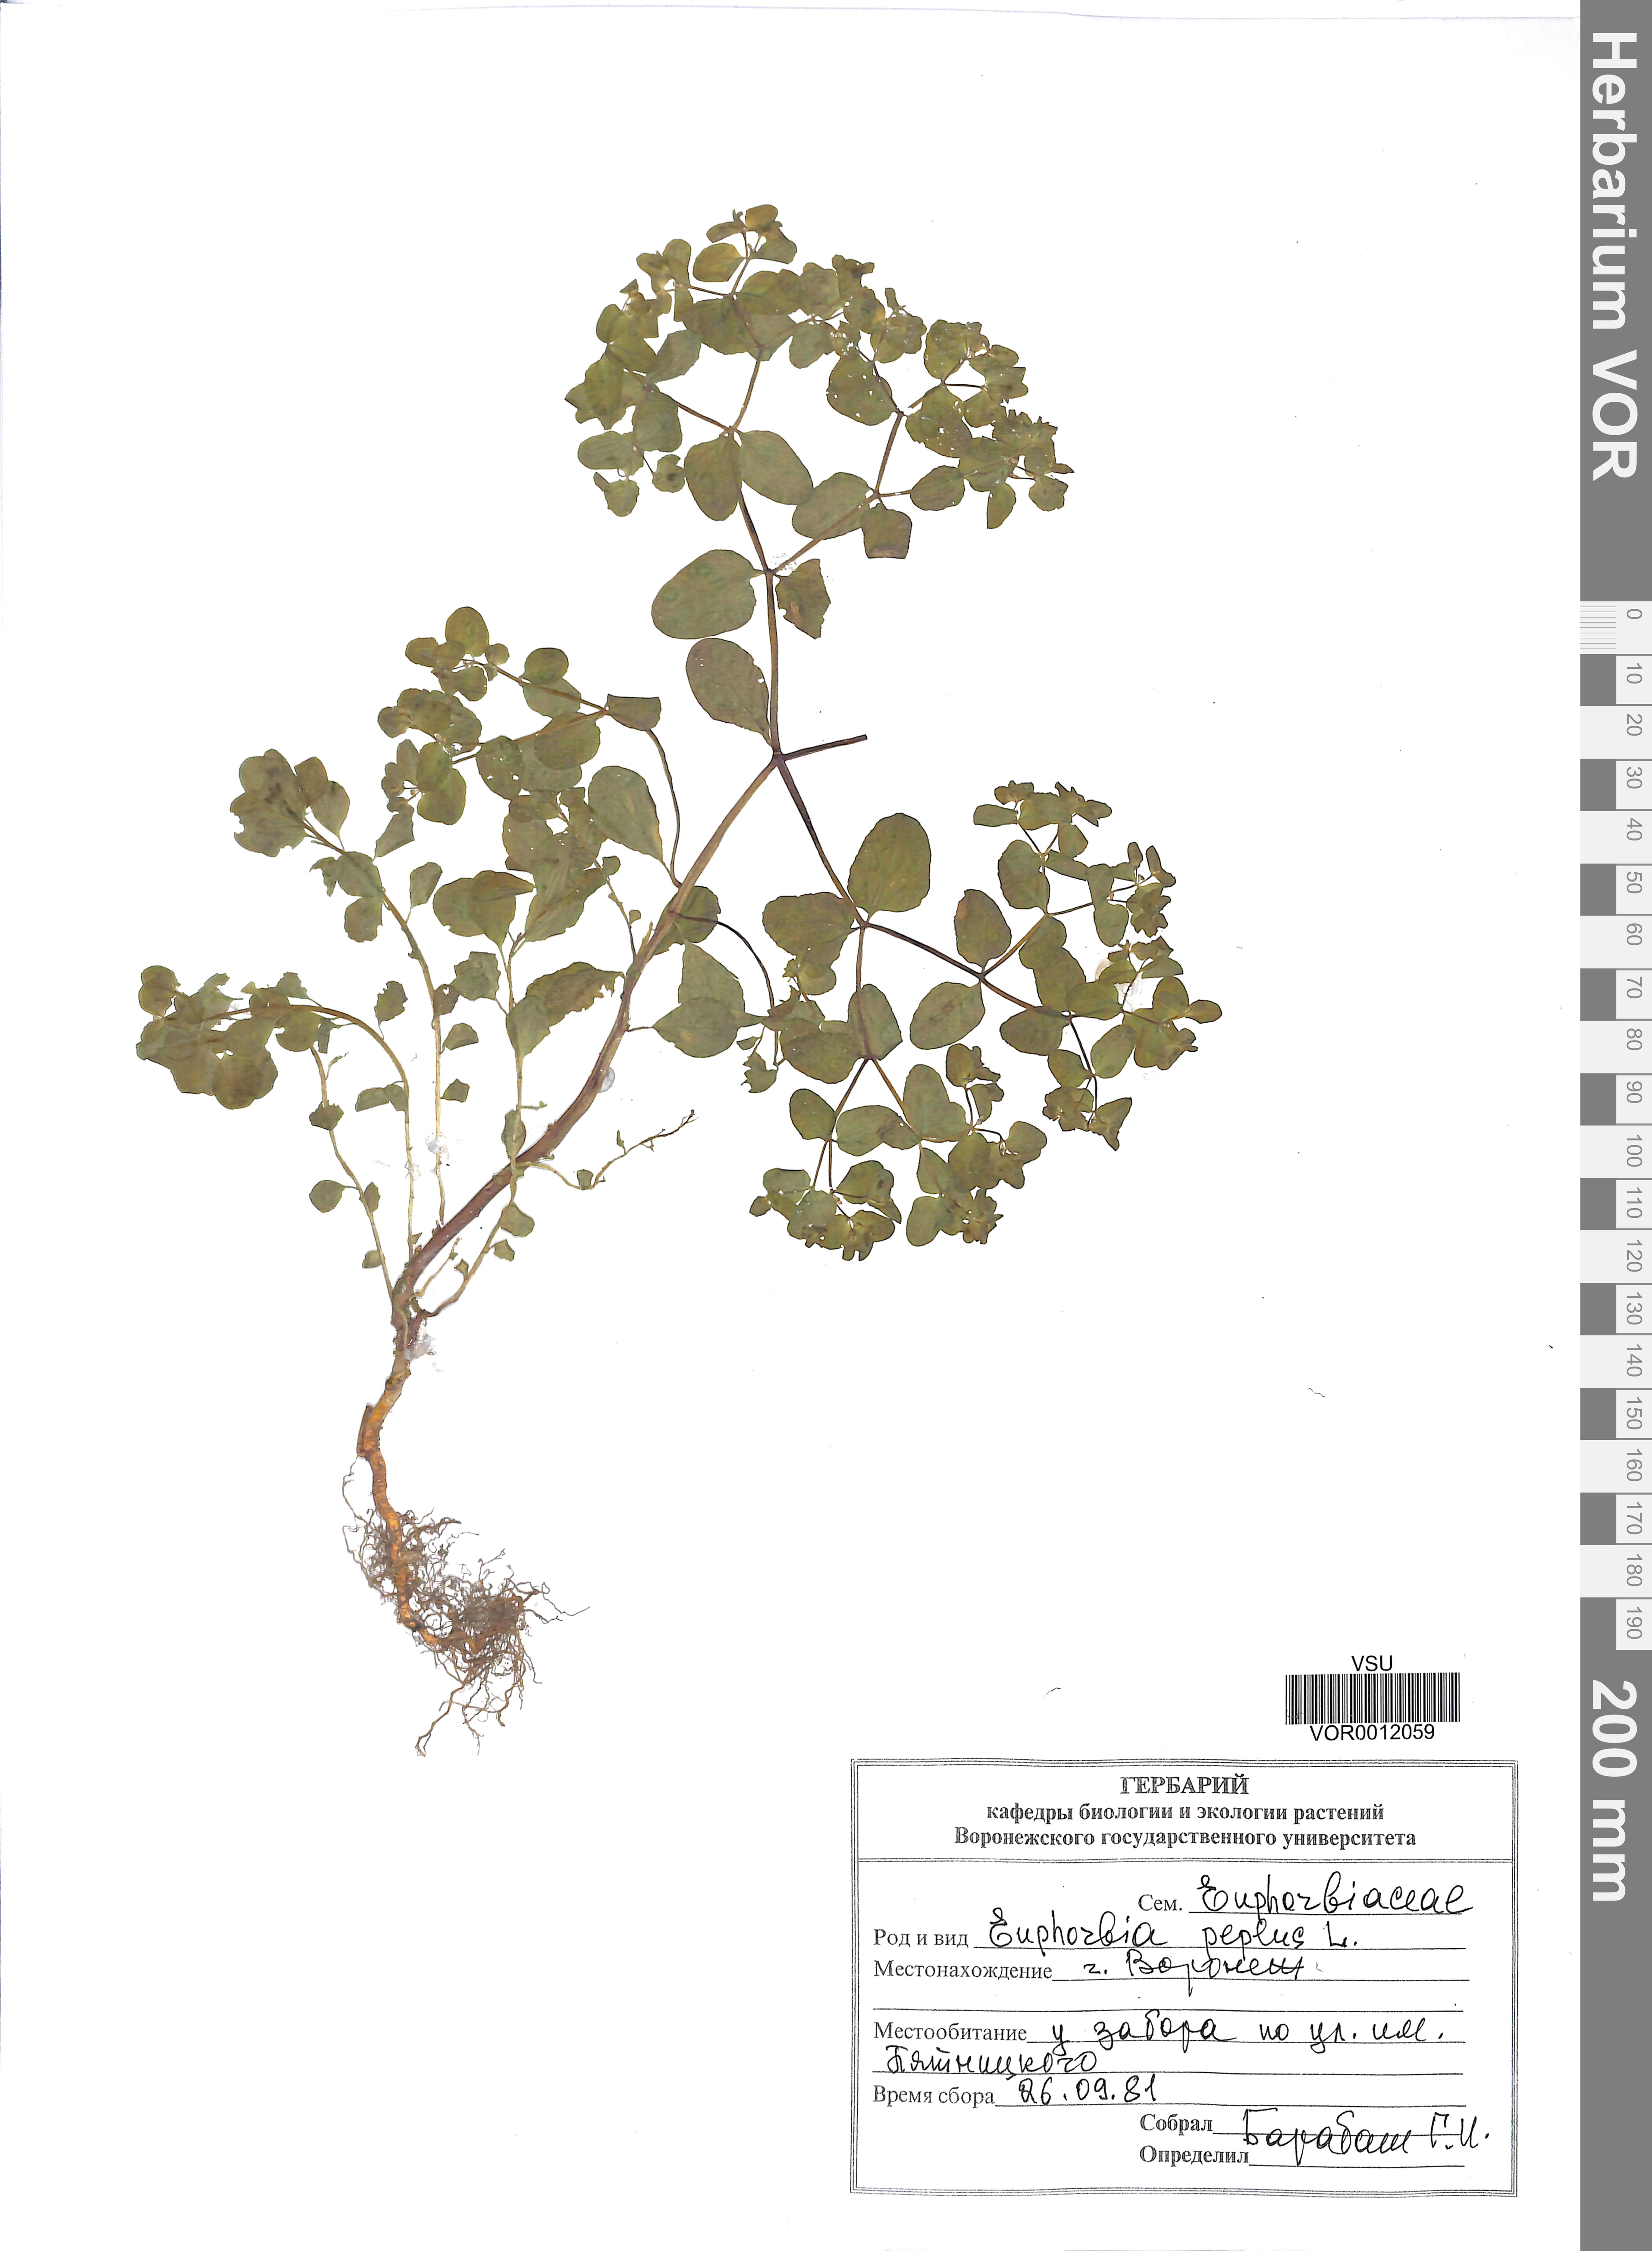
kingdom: Plantae
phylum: Tracheophyta
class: Magnoliopsida
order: Malpighiales
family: Euphorbiaceae
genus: Euphorbia
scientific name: Euphorbia peplus
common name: Petty spurge
